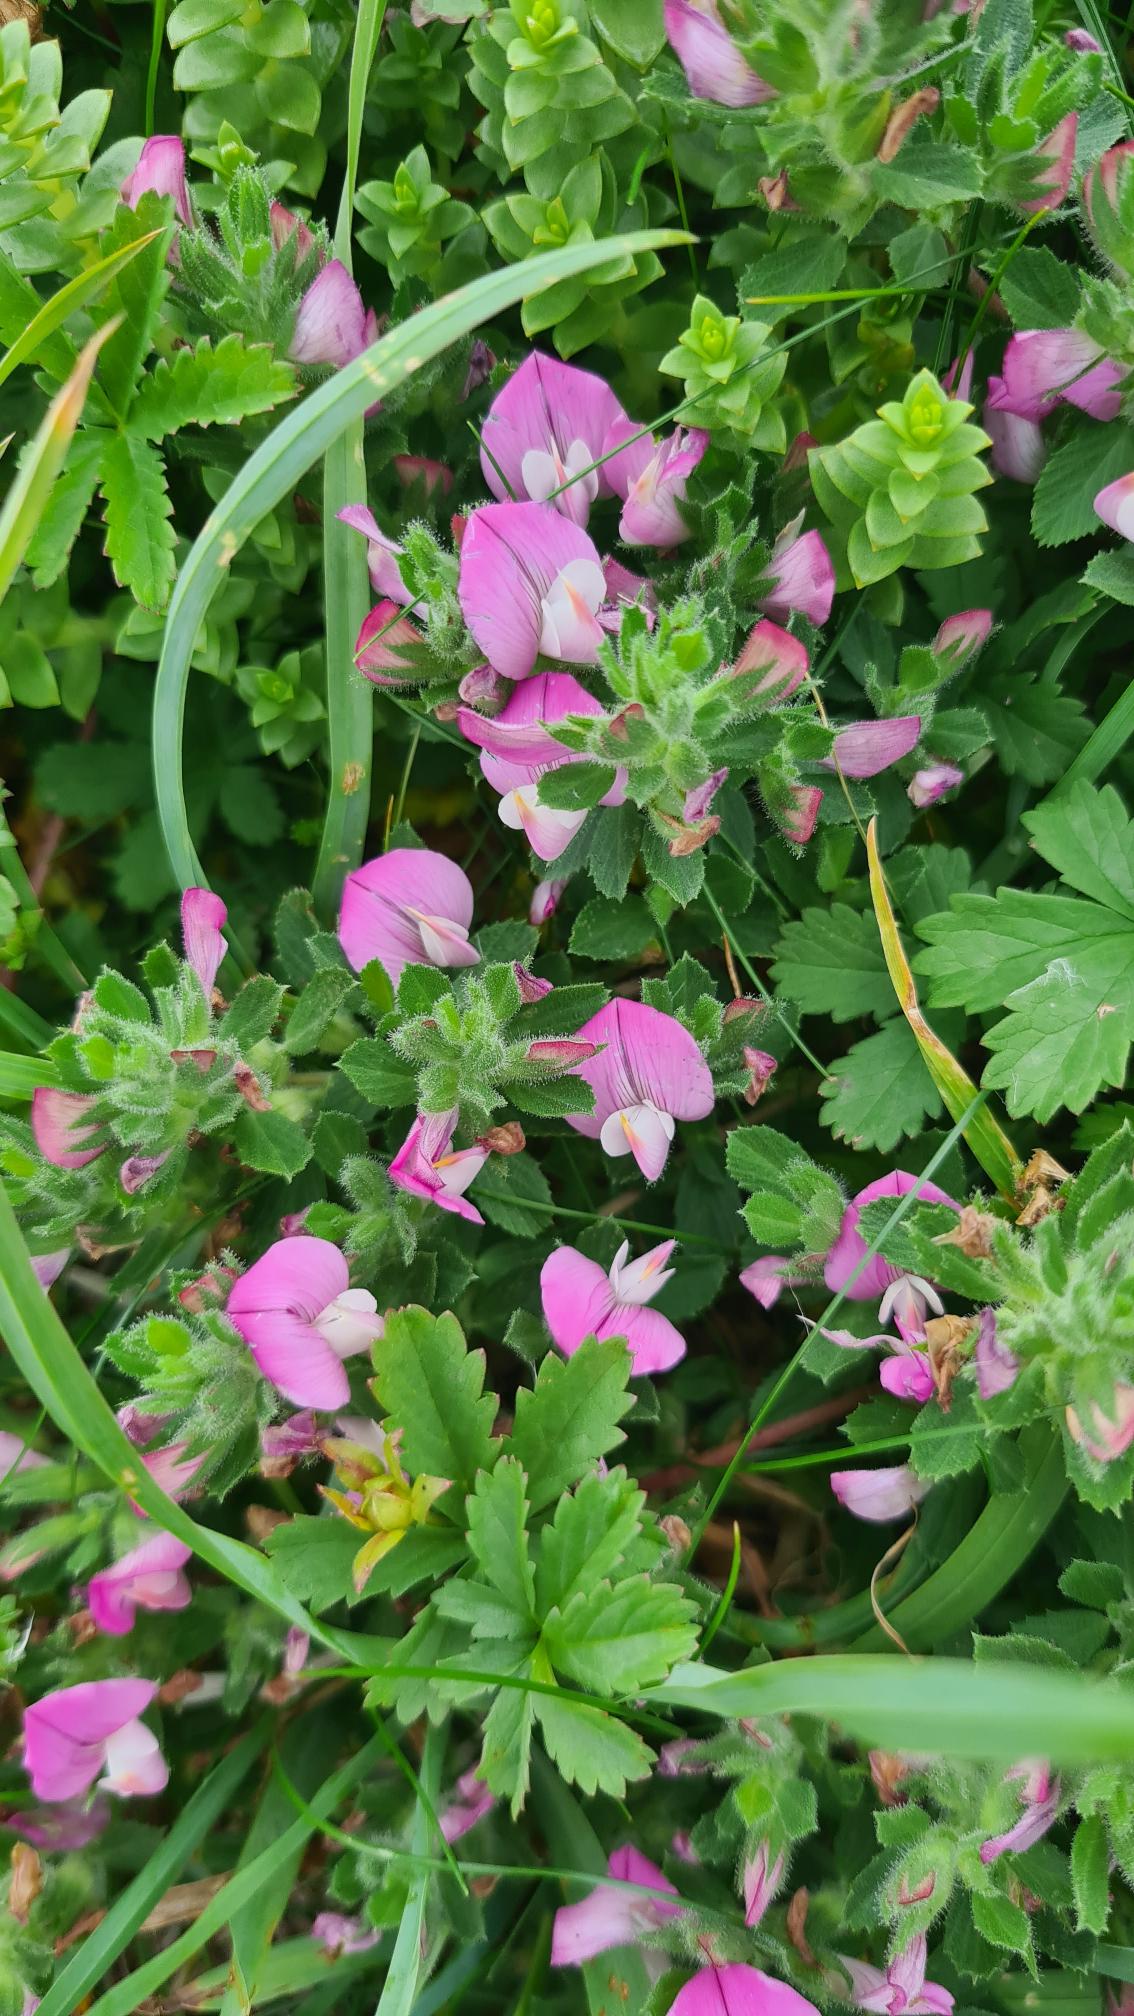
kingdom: Plantae
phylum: Tracheophyta
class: Magnoliopsida
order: Fabales
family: Fabaceae
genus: Ononis
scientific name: Ononis
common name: Kragekloslægten
